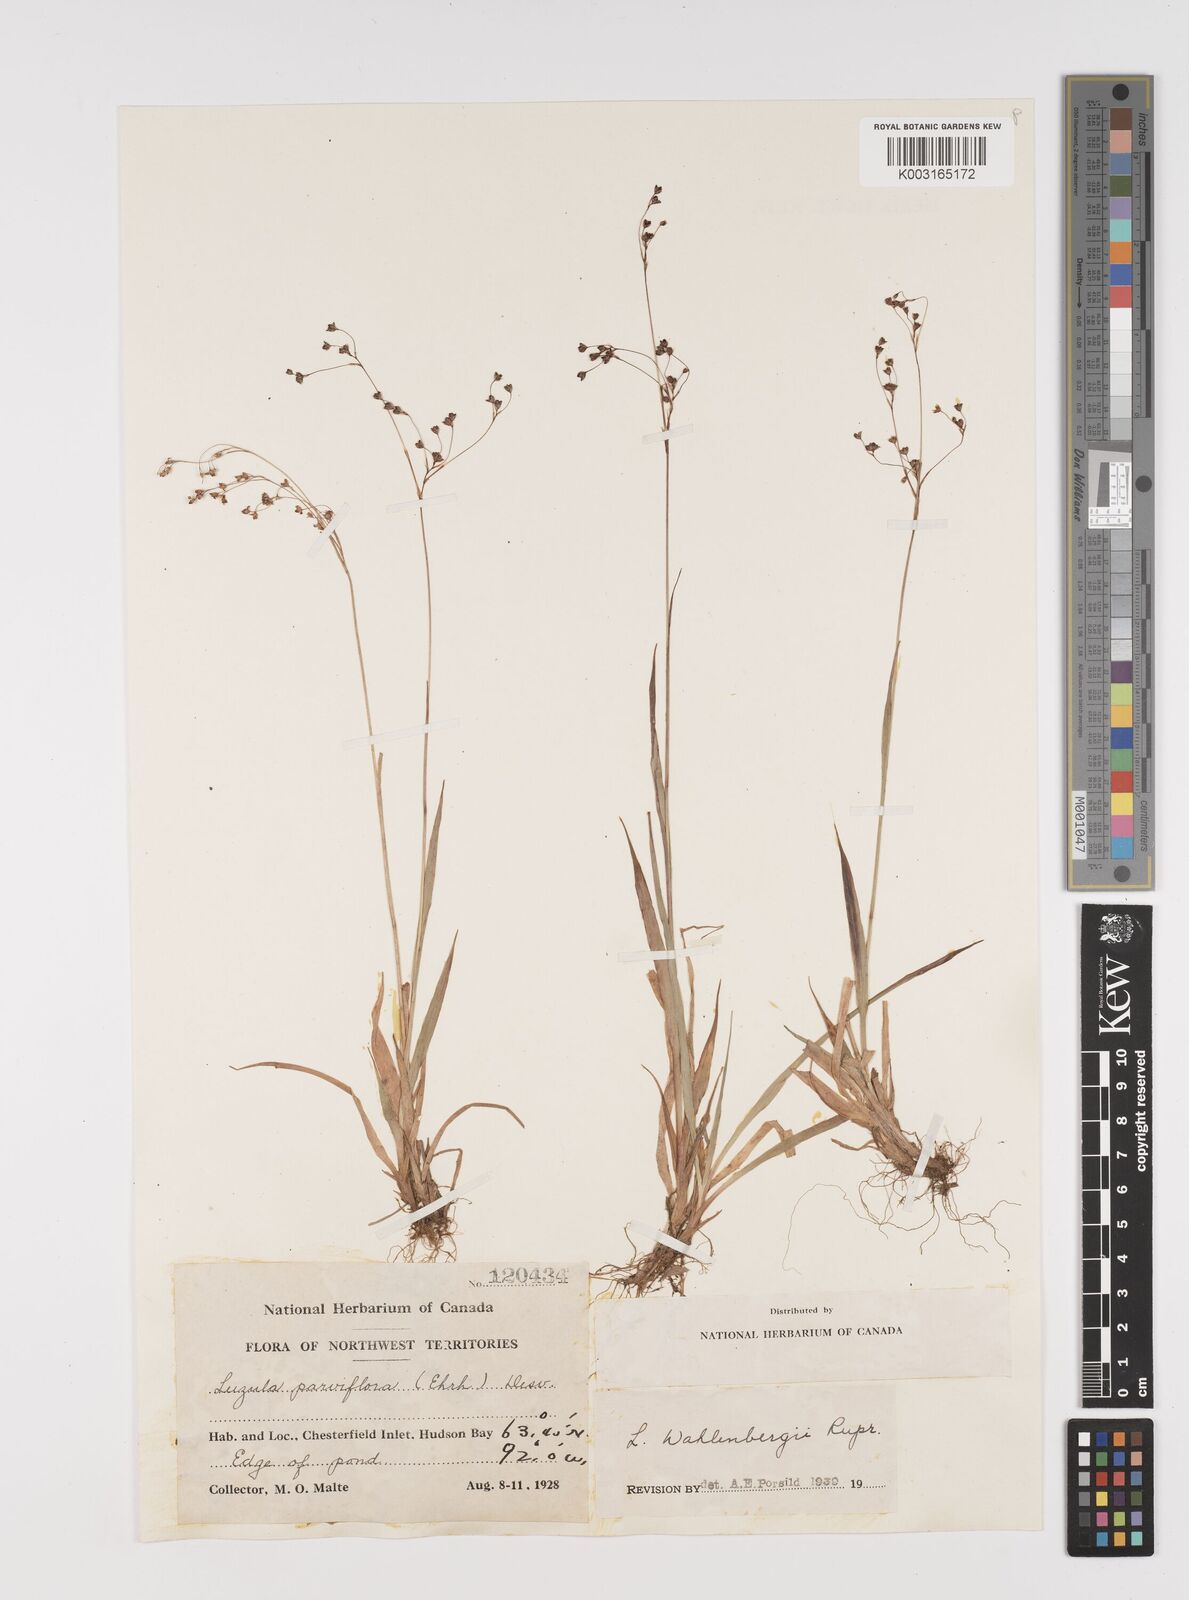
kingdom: Plantae
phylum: Tracheophyta
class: Liliopsida
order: Poales
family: Juncaceae
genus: Luzula
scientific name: Luzula wahlenbergii
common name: Wahlenberg's wood-rush
